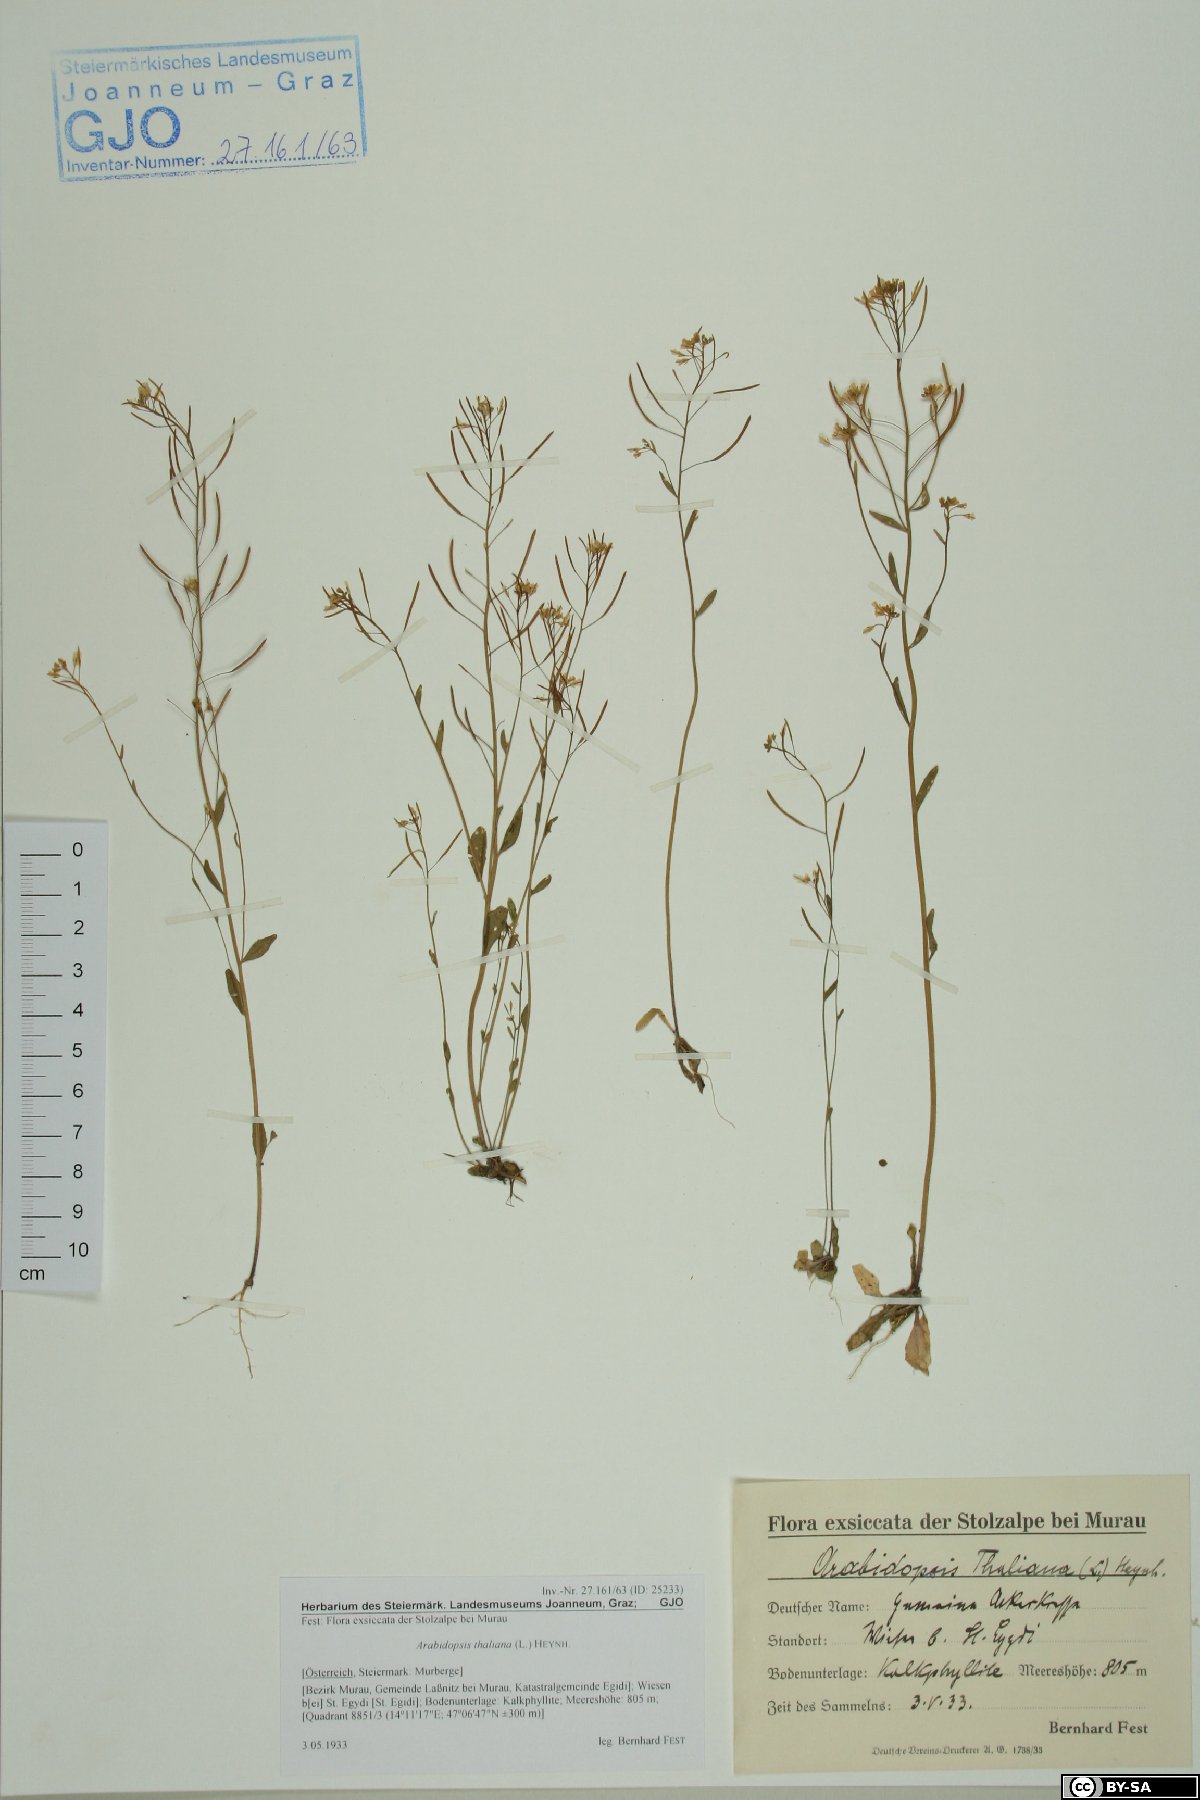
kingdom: Plantae
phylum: Tracheophyta
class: Magnoliopsida
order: Brassicales
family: Brassicaceae
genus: Arabidopsis
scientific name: Arabidopsis thaliana
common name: Thale cress
